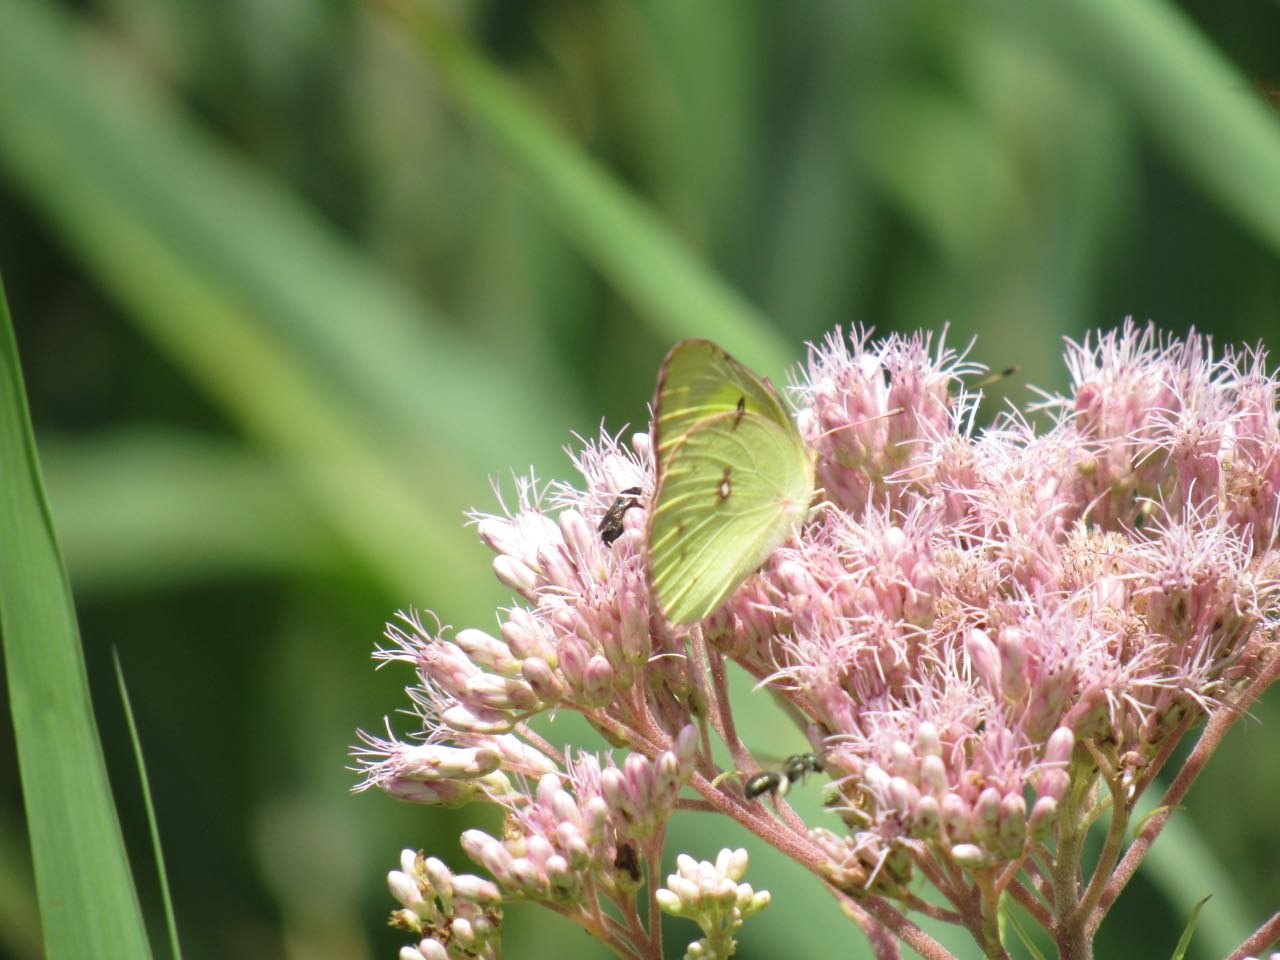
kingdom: Animalia
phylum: Arthropoda
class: Insecta
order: Lepidoptera
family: Pieridae
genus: Colias
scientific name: Colias philodice
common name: Clouded Sulphur
